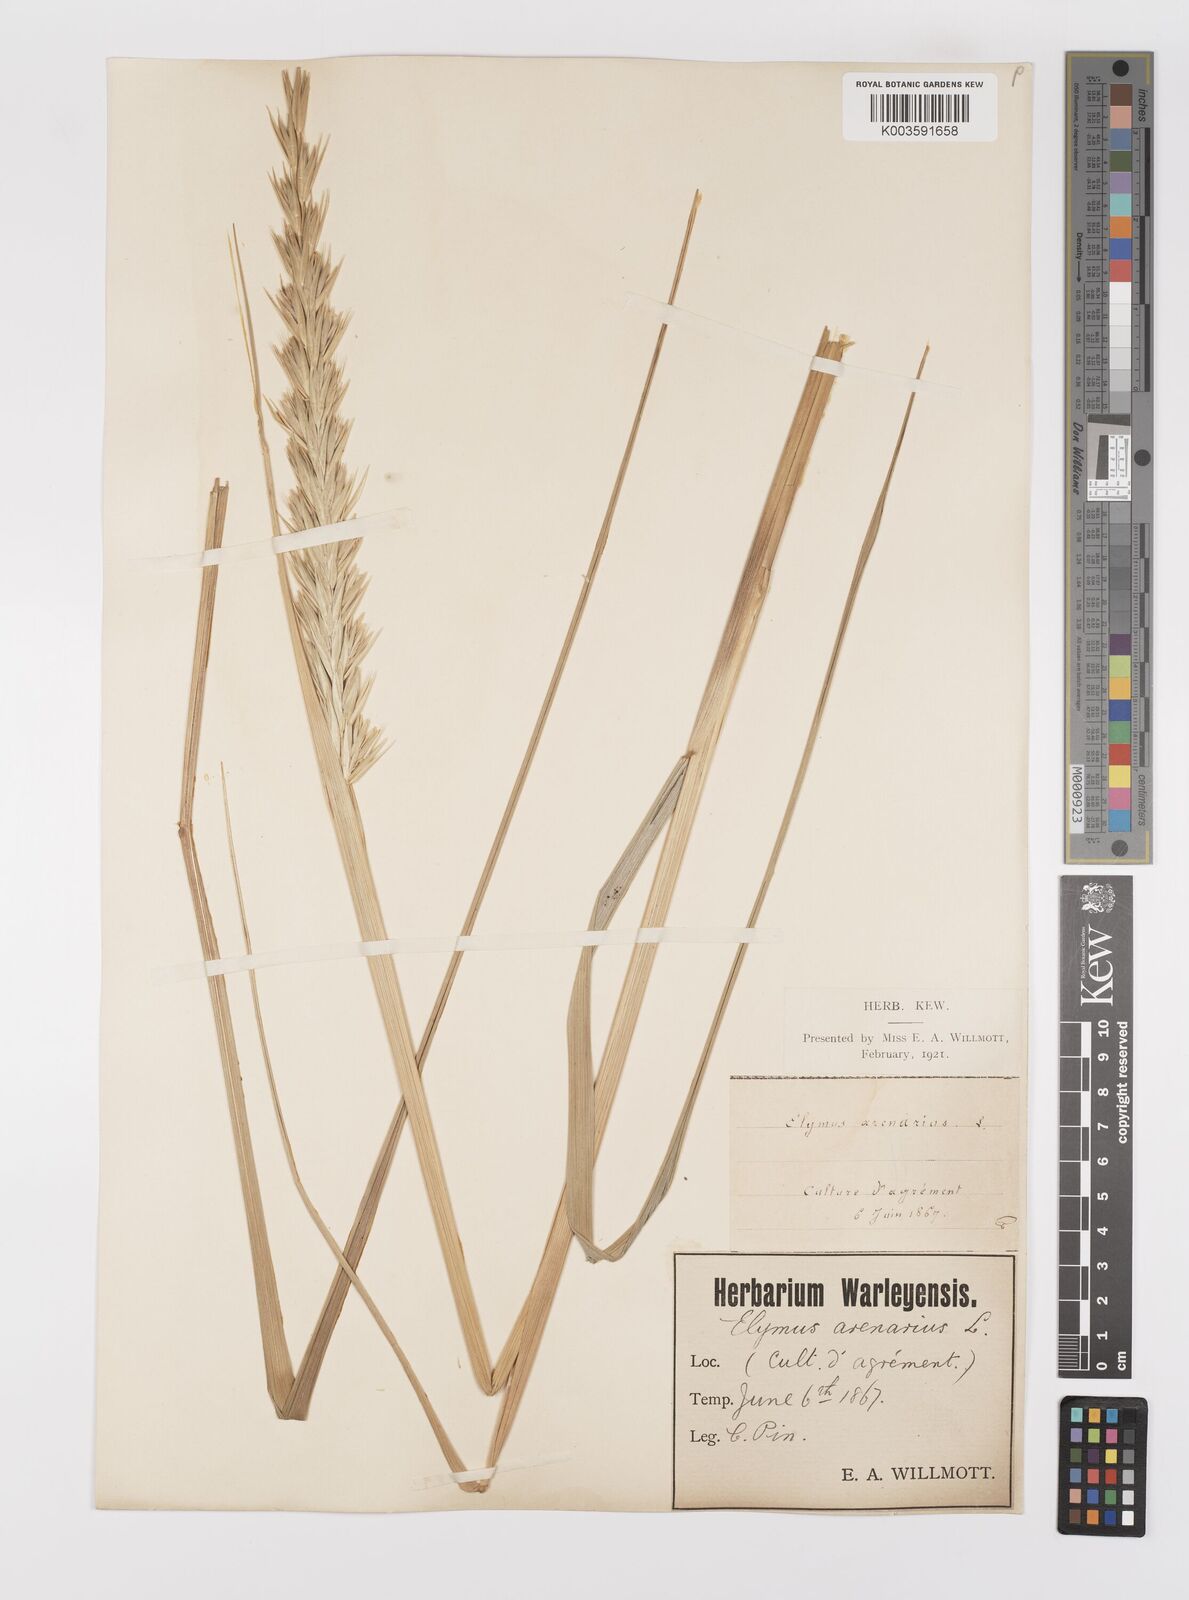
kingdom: Plantae
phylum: Tracheophyta
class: Liliopsida
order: Poales
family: Poaceae
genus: Leymus
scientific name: Leymus arenarius
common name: Lyme-grass
